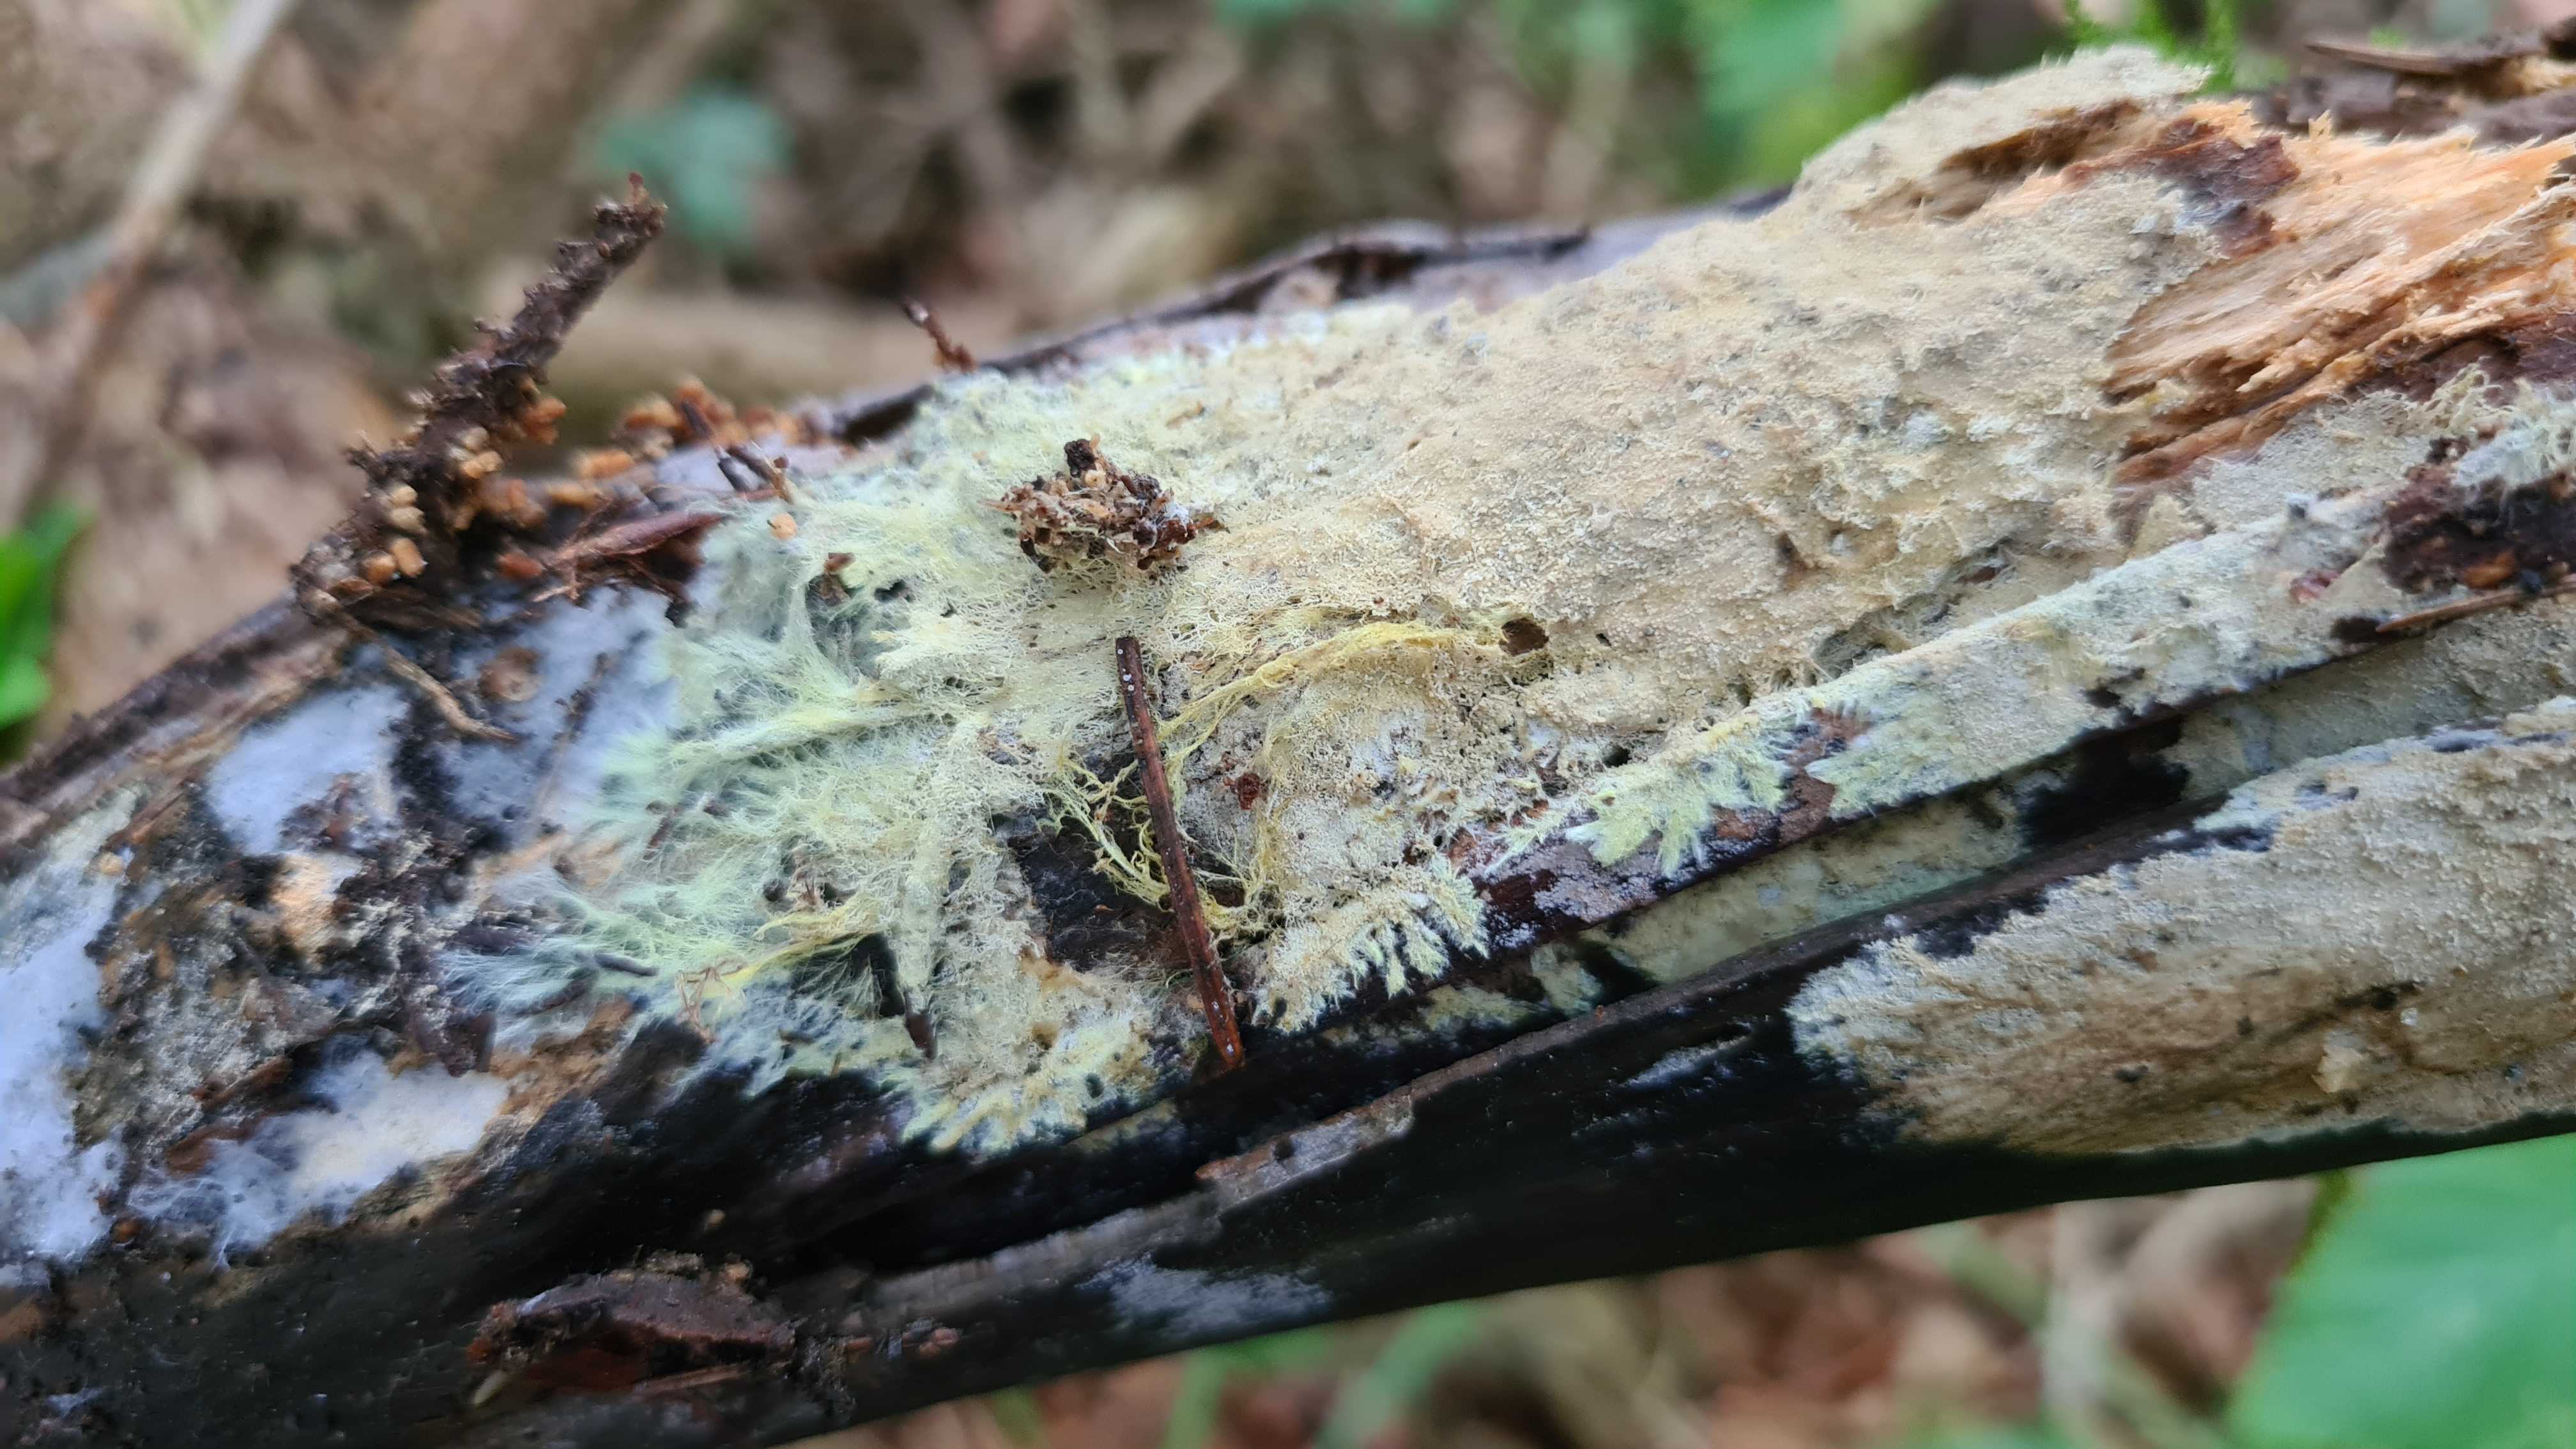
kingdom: Fungi
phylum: Basidiomycota
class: Agaricomycetes
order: Russulales
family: Xenasmataceae
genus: Xenasmatella
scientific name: Xenasmatella vaga
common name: svovl-strenghinde
